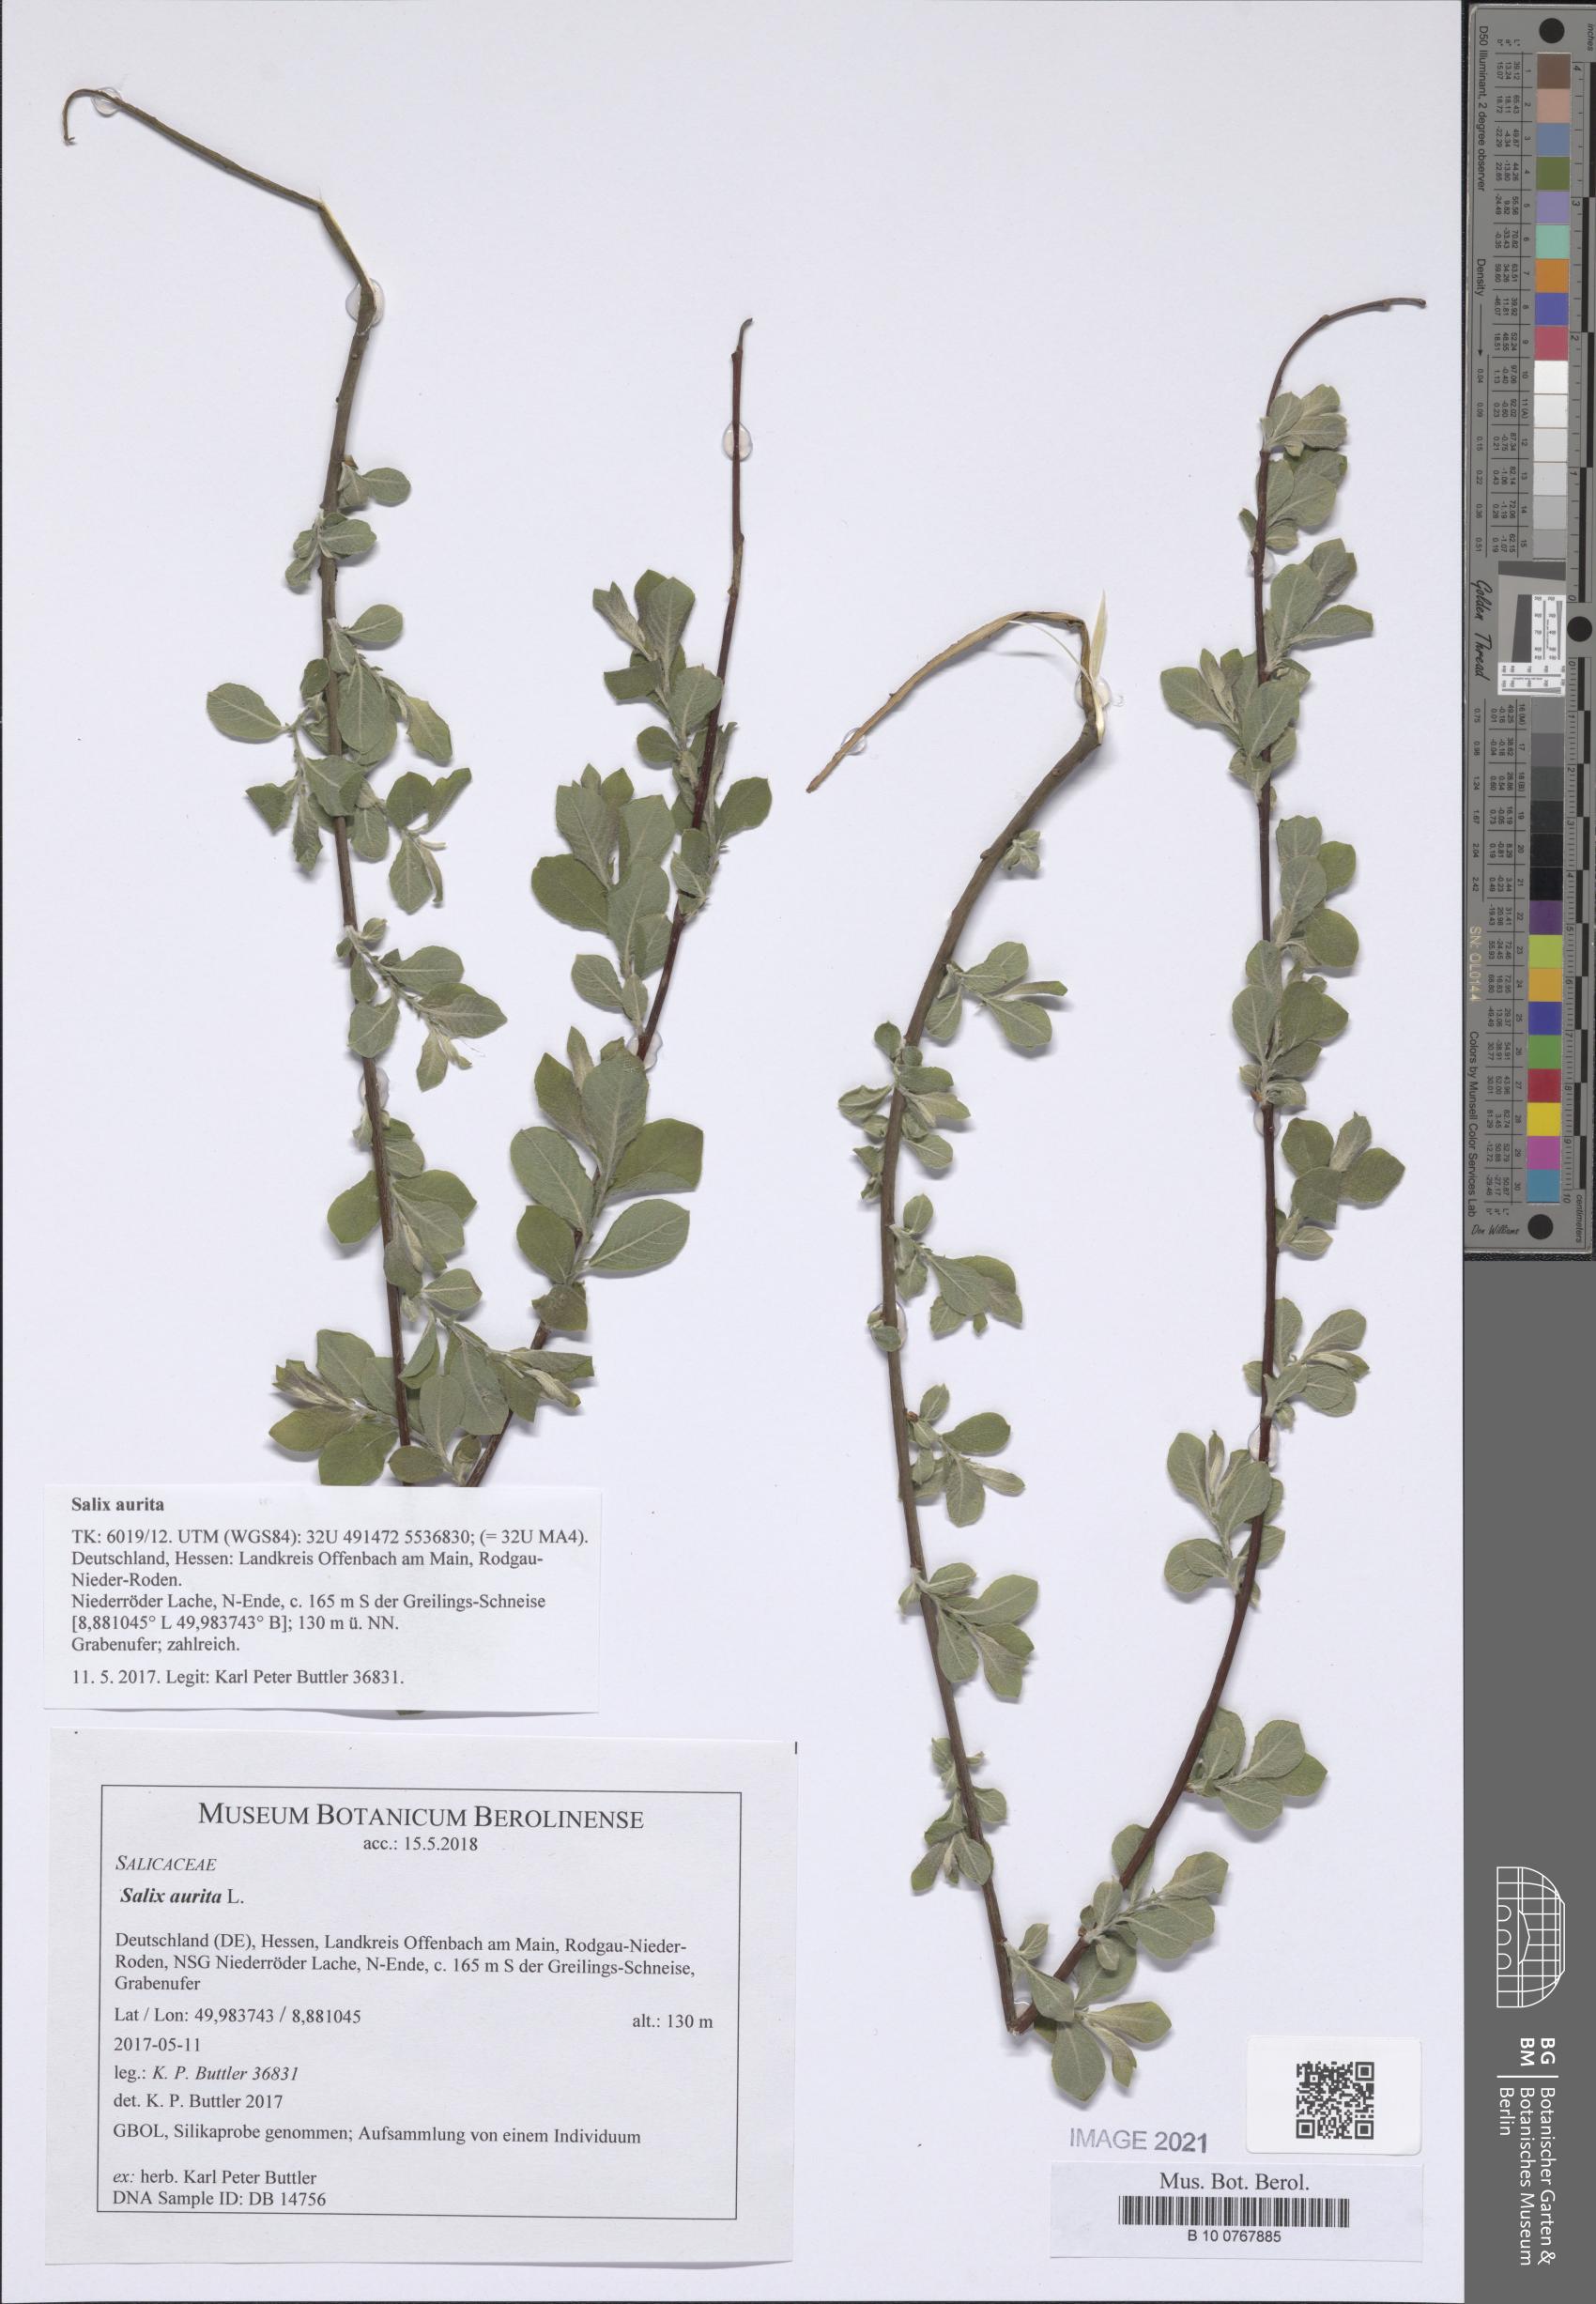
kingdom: Plantae
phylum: Tracheophyta
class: Magnoliopsida
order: Malpighiales
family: Salicaceae
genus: Salix
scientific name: Salix aurita
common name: Eared willow
